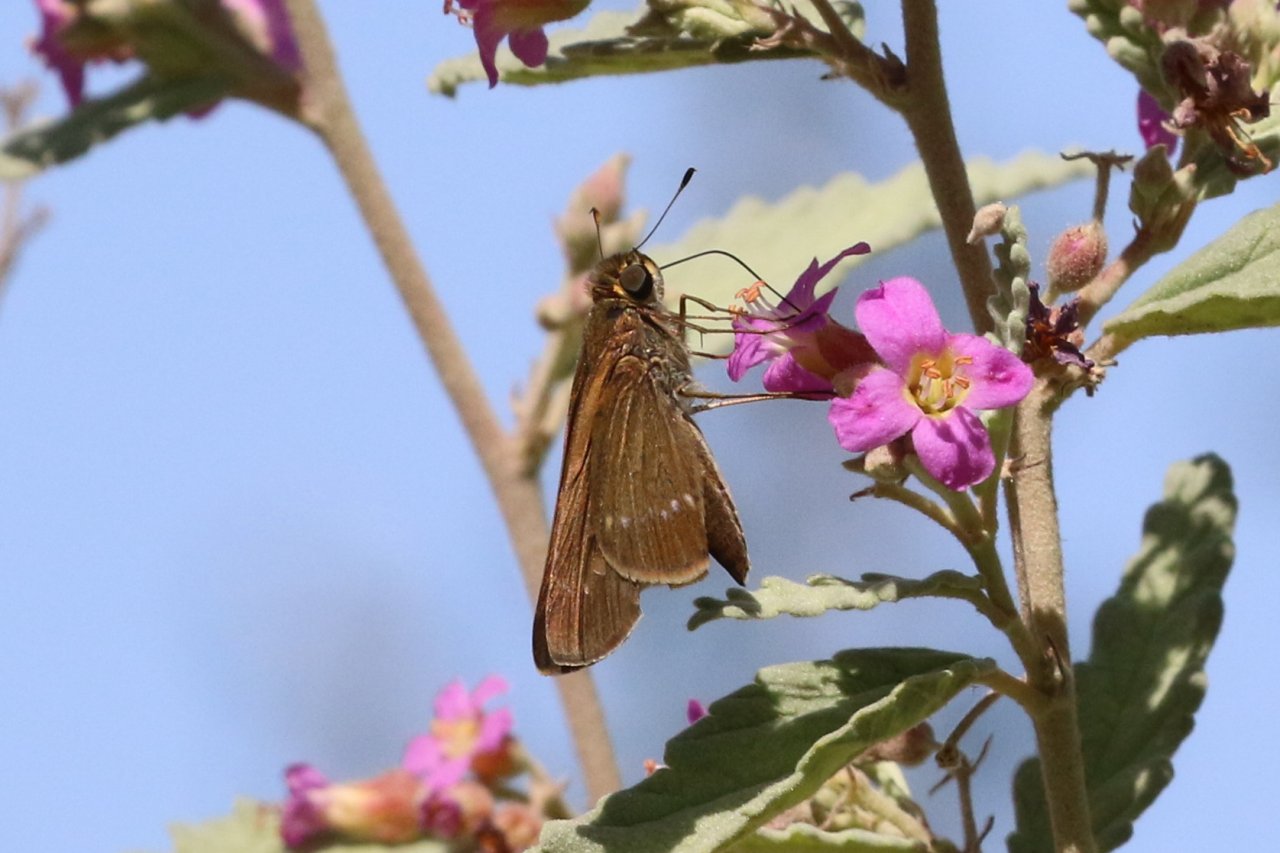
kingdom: Animalia
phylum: Arthropoda
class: Insecta
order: Lepidoptera
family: Hesperiidae
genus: Turesis
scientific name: Turesis lucas
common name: Purple-washed Skipper
